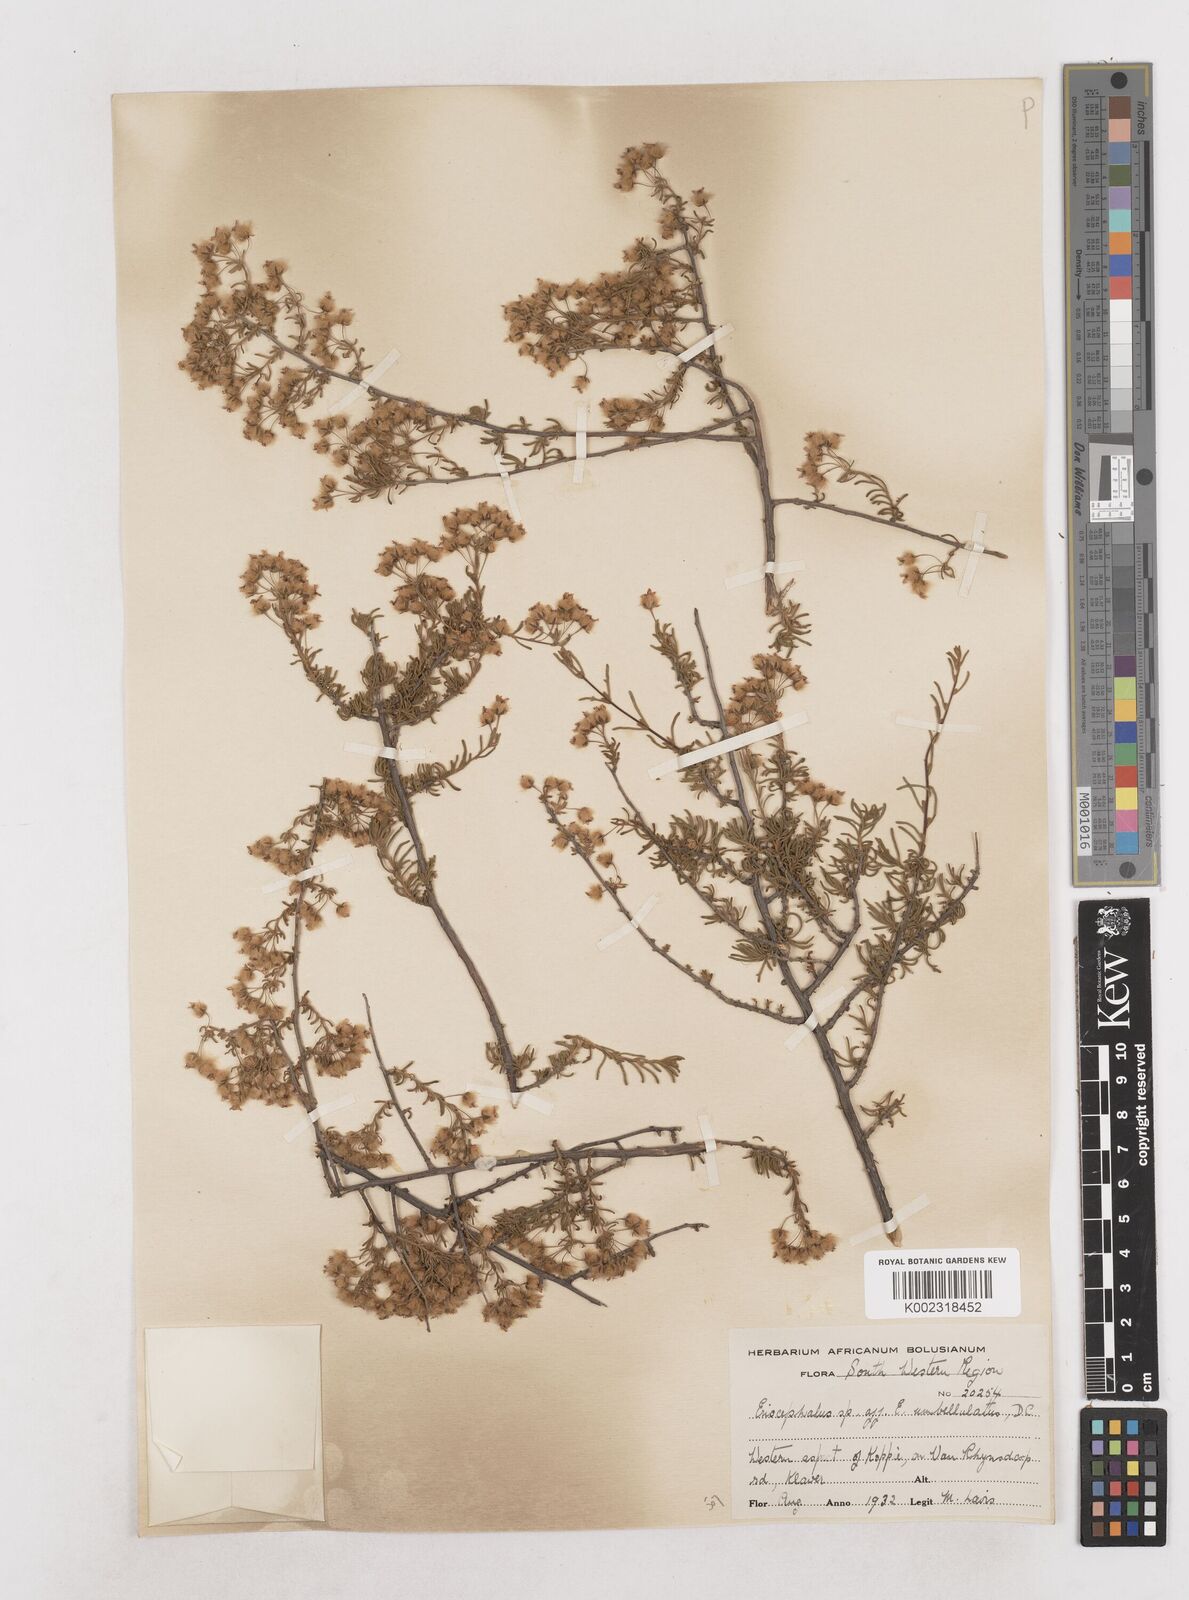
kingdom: Plantae
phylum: Tracheophyta
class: Magnoliopsida
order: Asterales
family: Asteraceae
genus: Eriocephalus
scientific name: Eriocephalus
